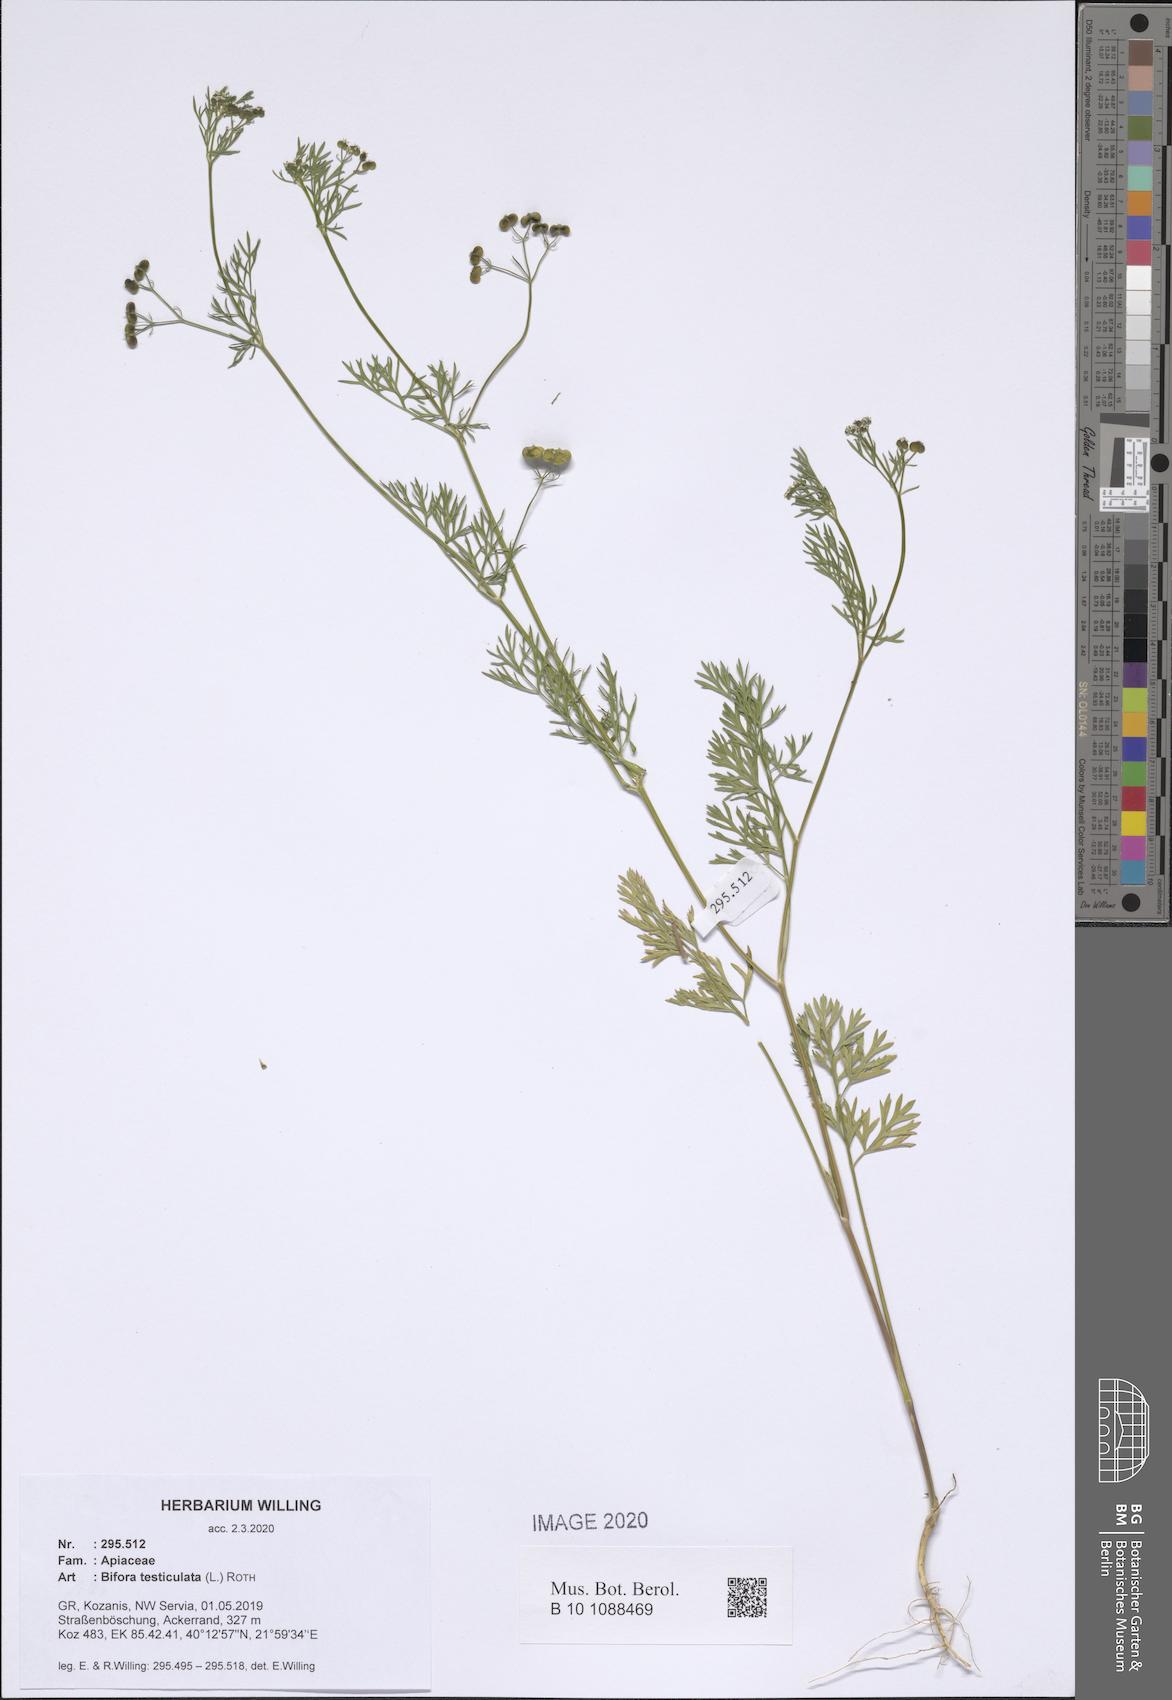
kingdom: Plantae
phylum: Tracheophyta
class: Magnoliopsida
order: Apiales
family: Apiaceae
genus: Bifora
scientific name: Bifora testiculata
